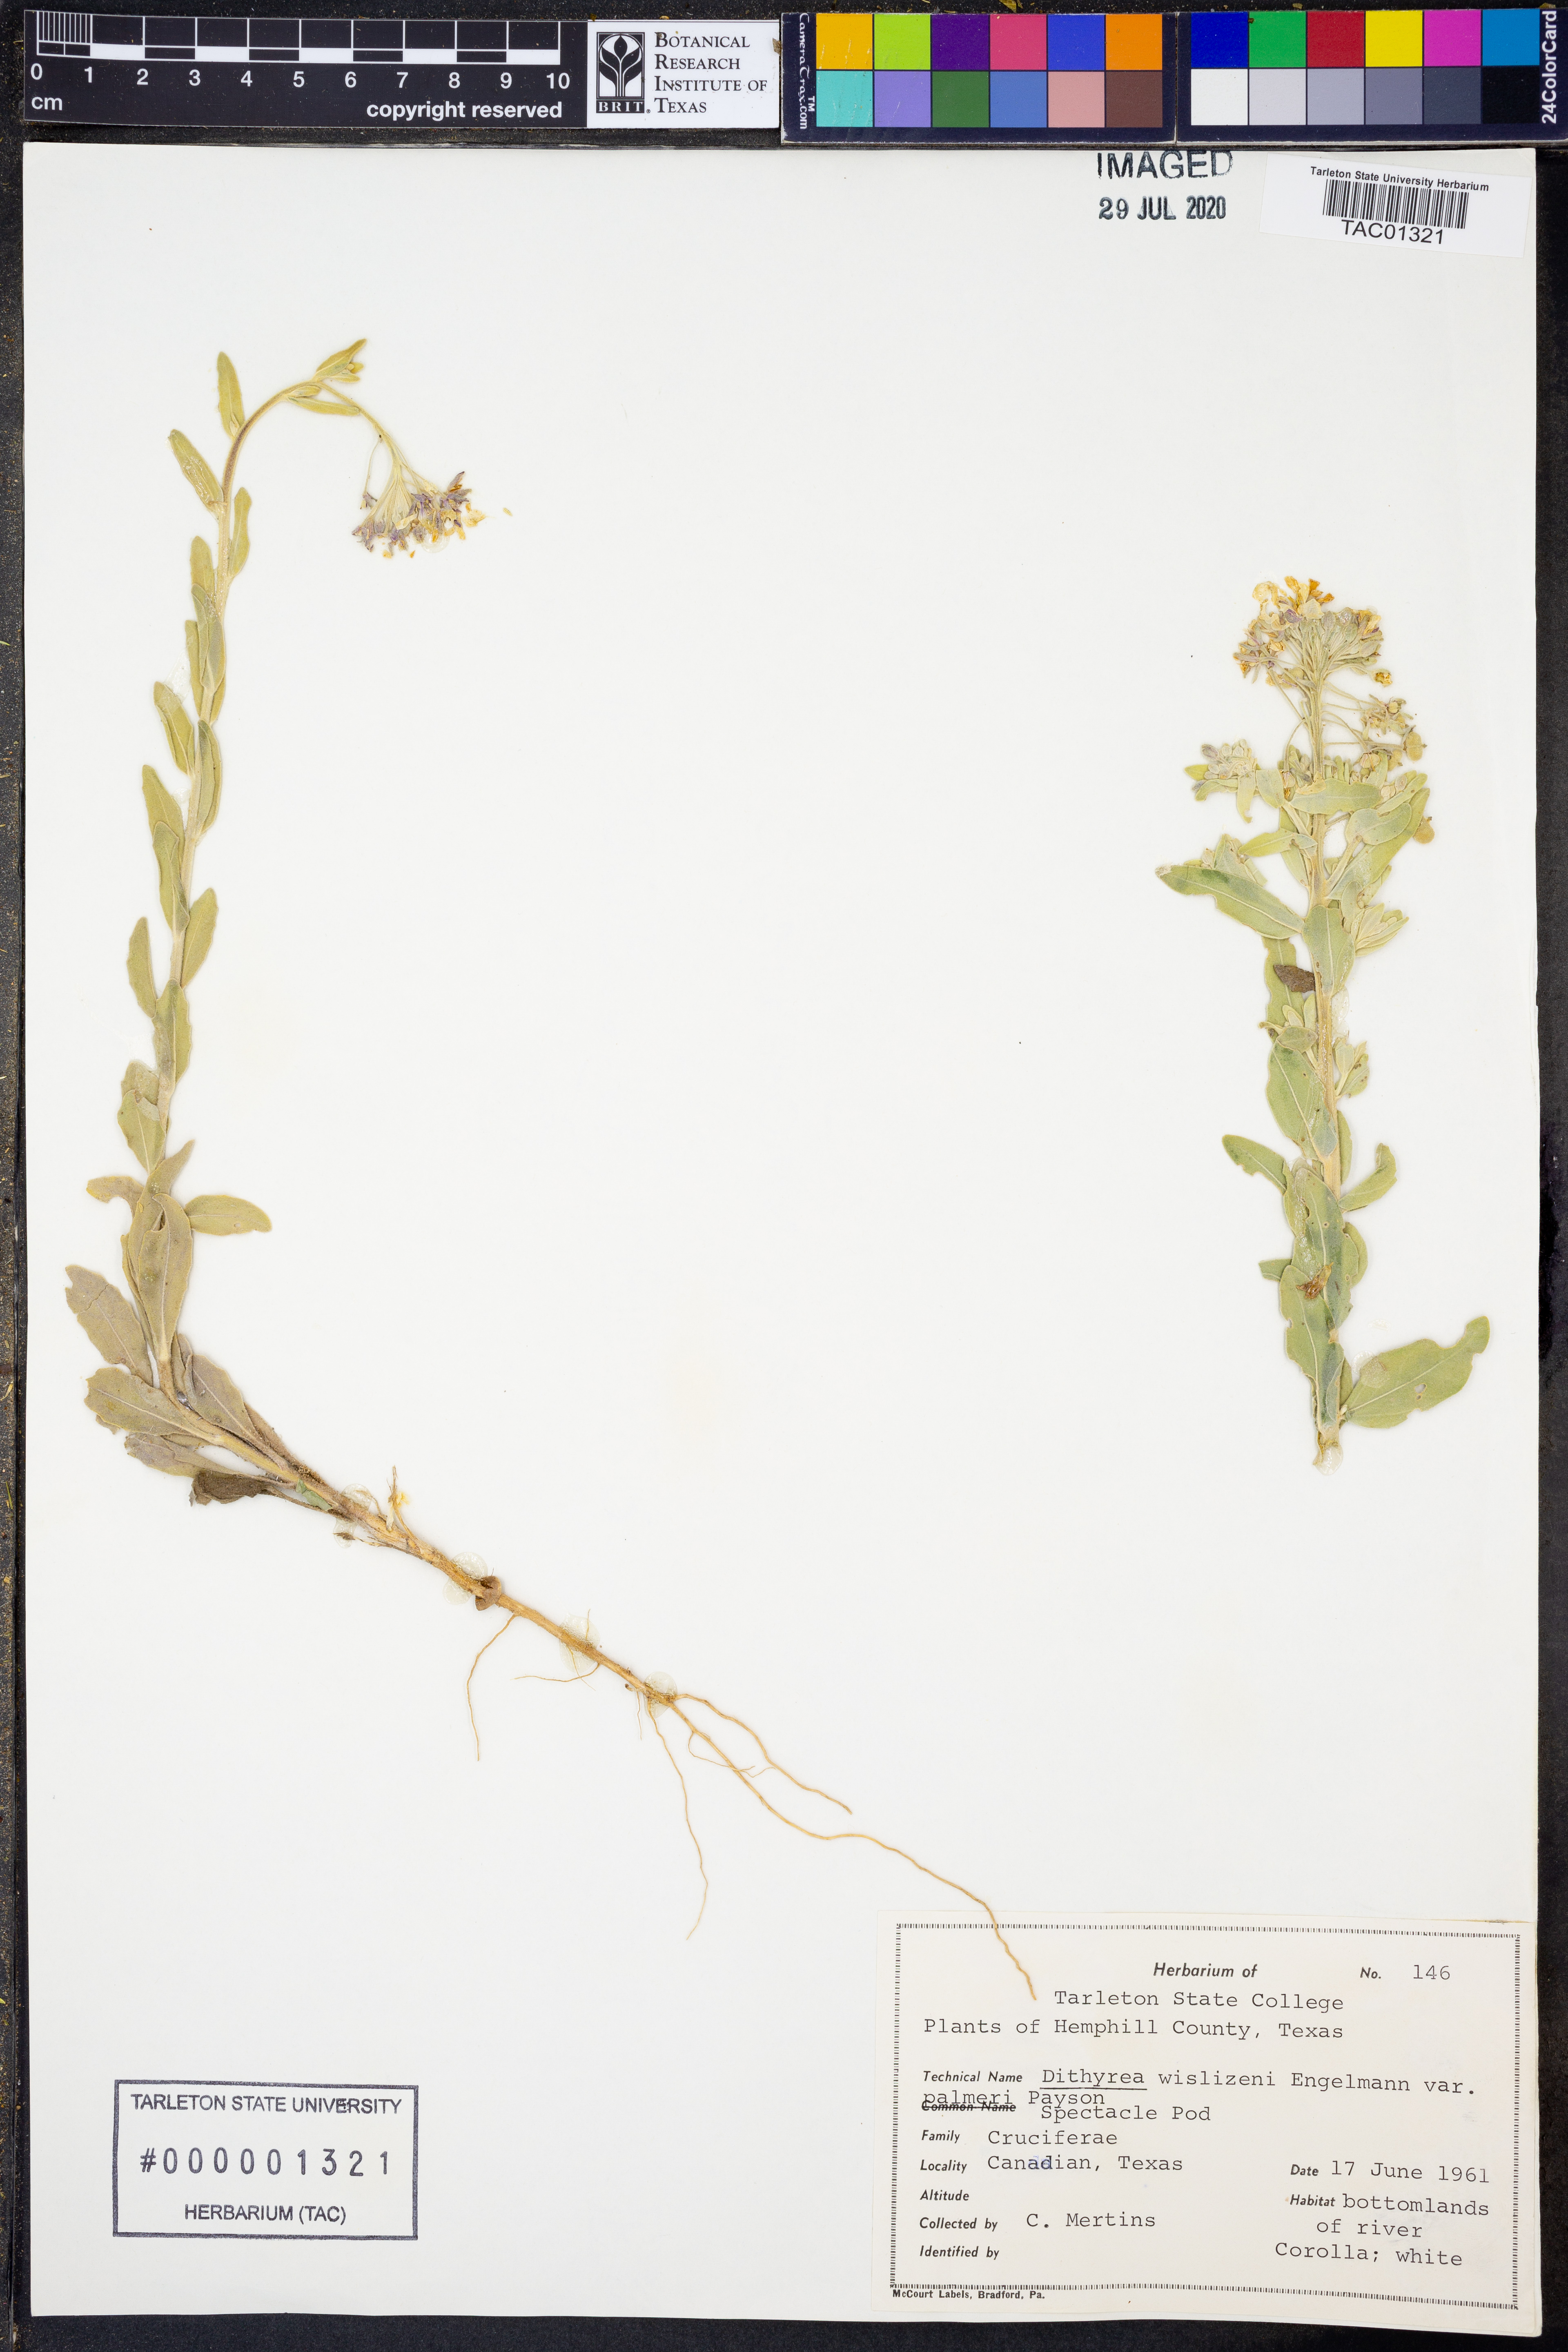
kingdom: Plantae
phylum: Tracheophyta
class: Magnoliopsida
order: Brassicales
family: Brassicaceae
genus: Dimorphocarpa
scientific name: Dimorphocarpa candicans
